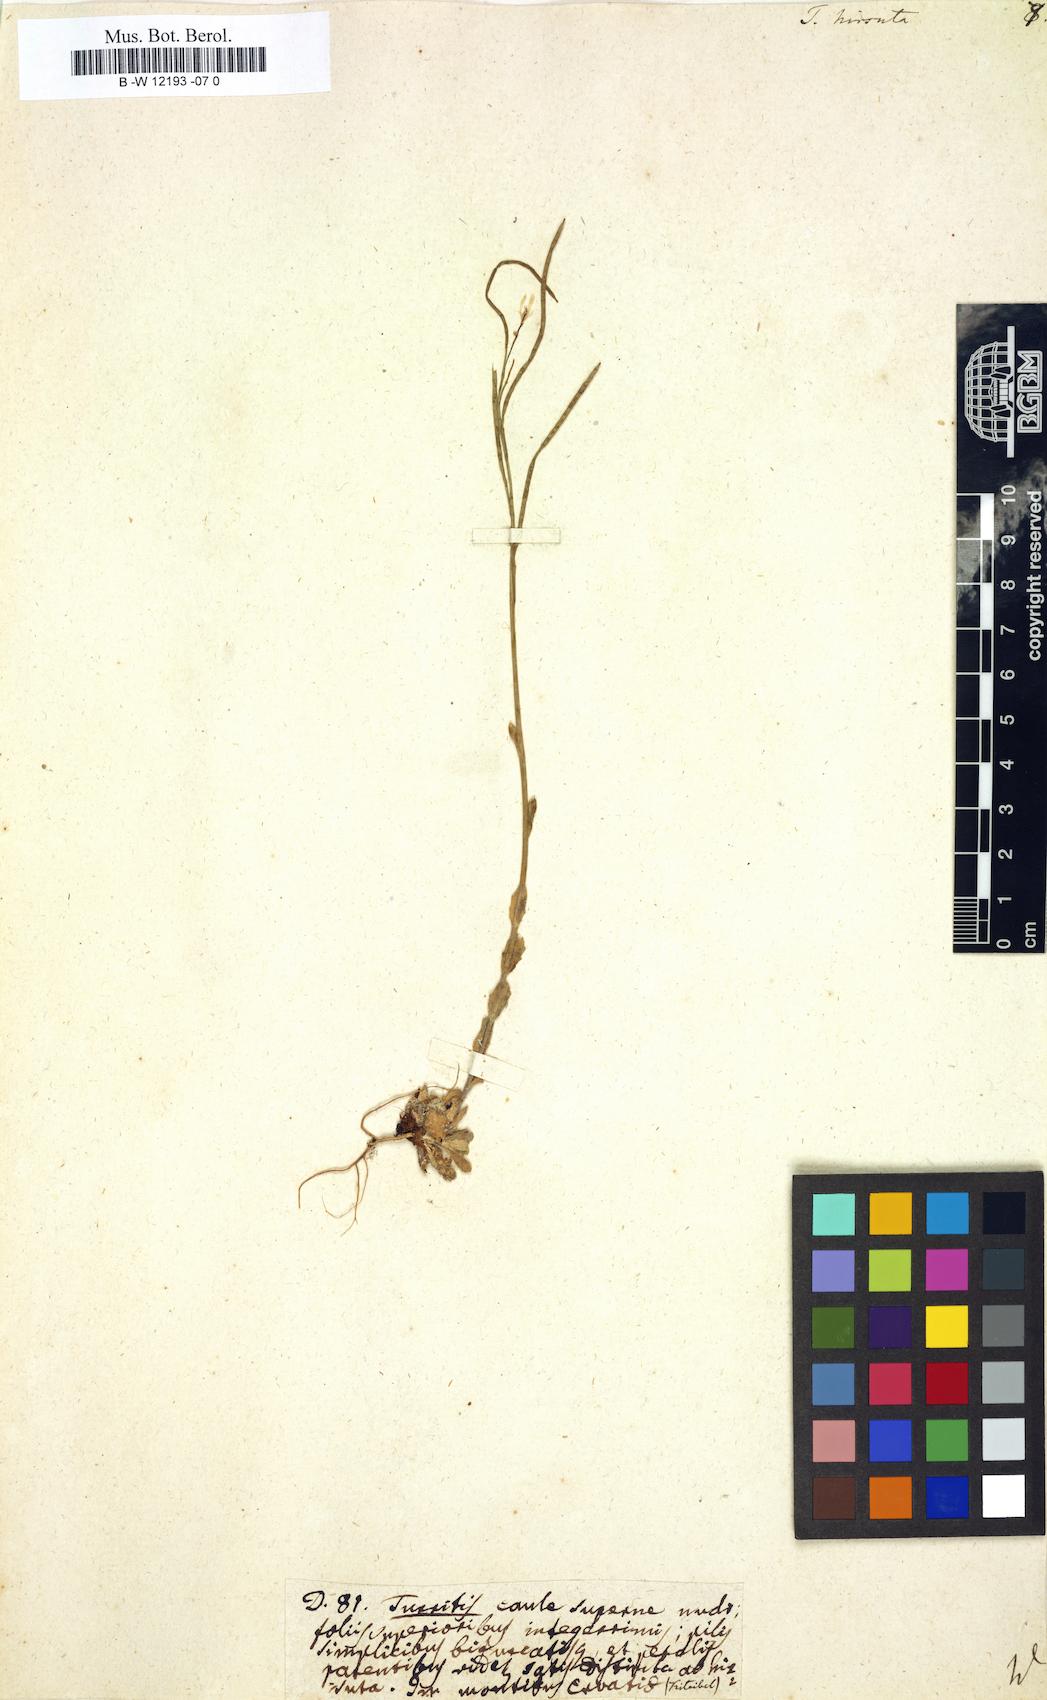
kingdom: Plantae
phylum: Tracheophyta
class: Magnoliopsida
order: Brassicales
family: Brassicaceae
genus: Turritis
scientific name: Turritis hirsuta
